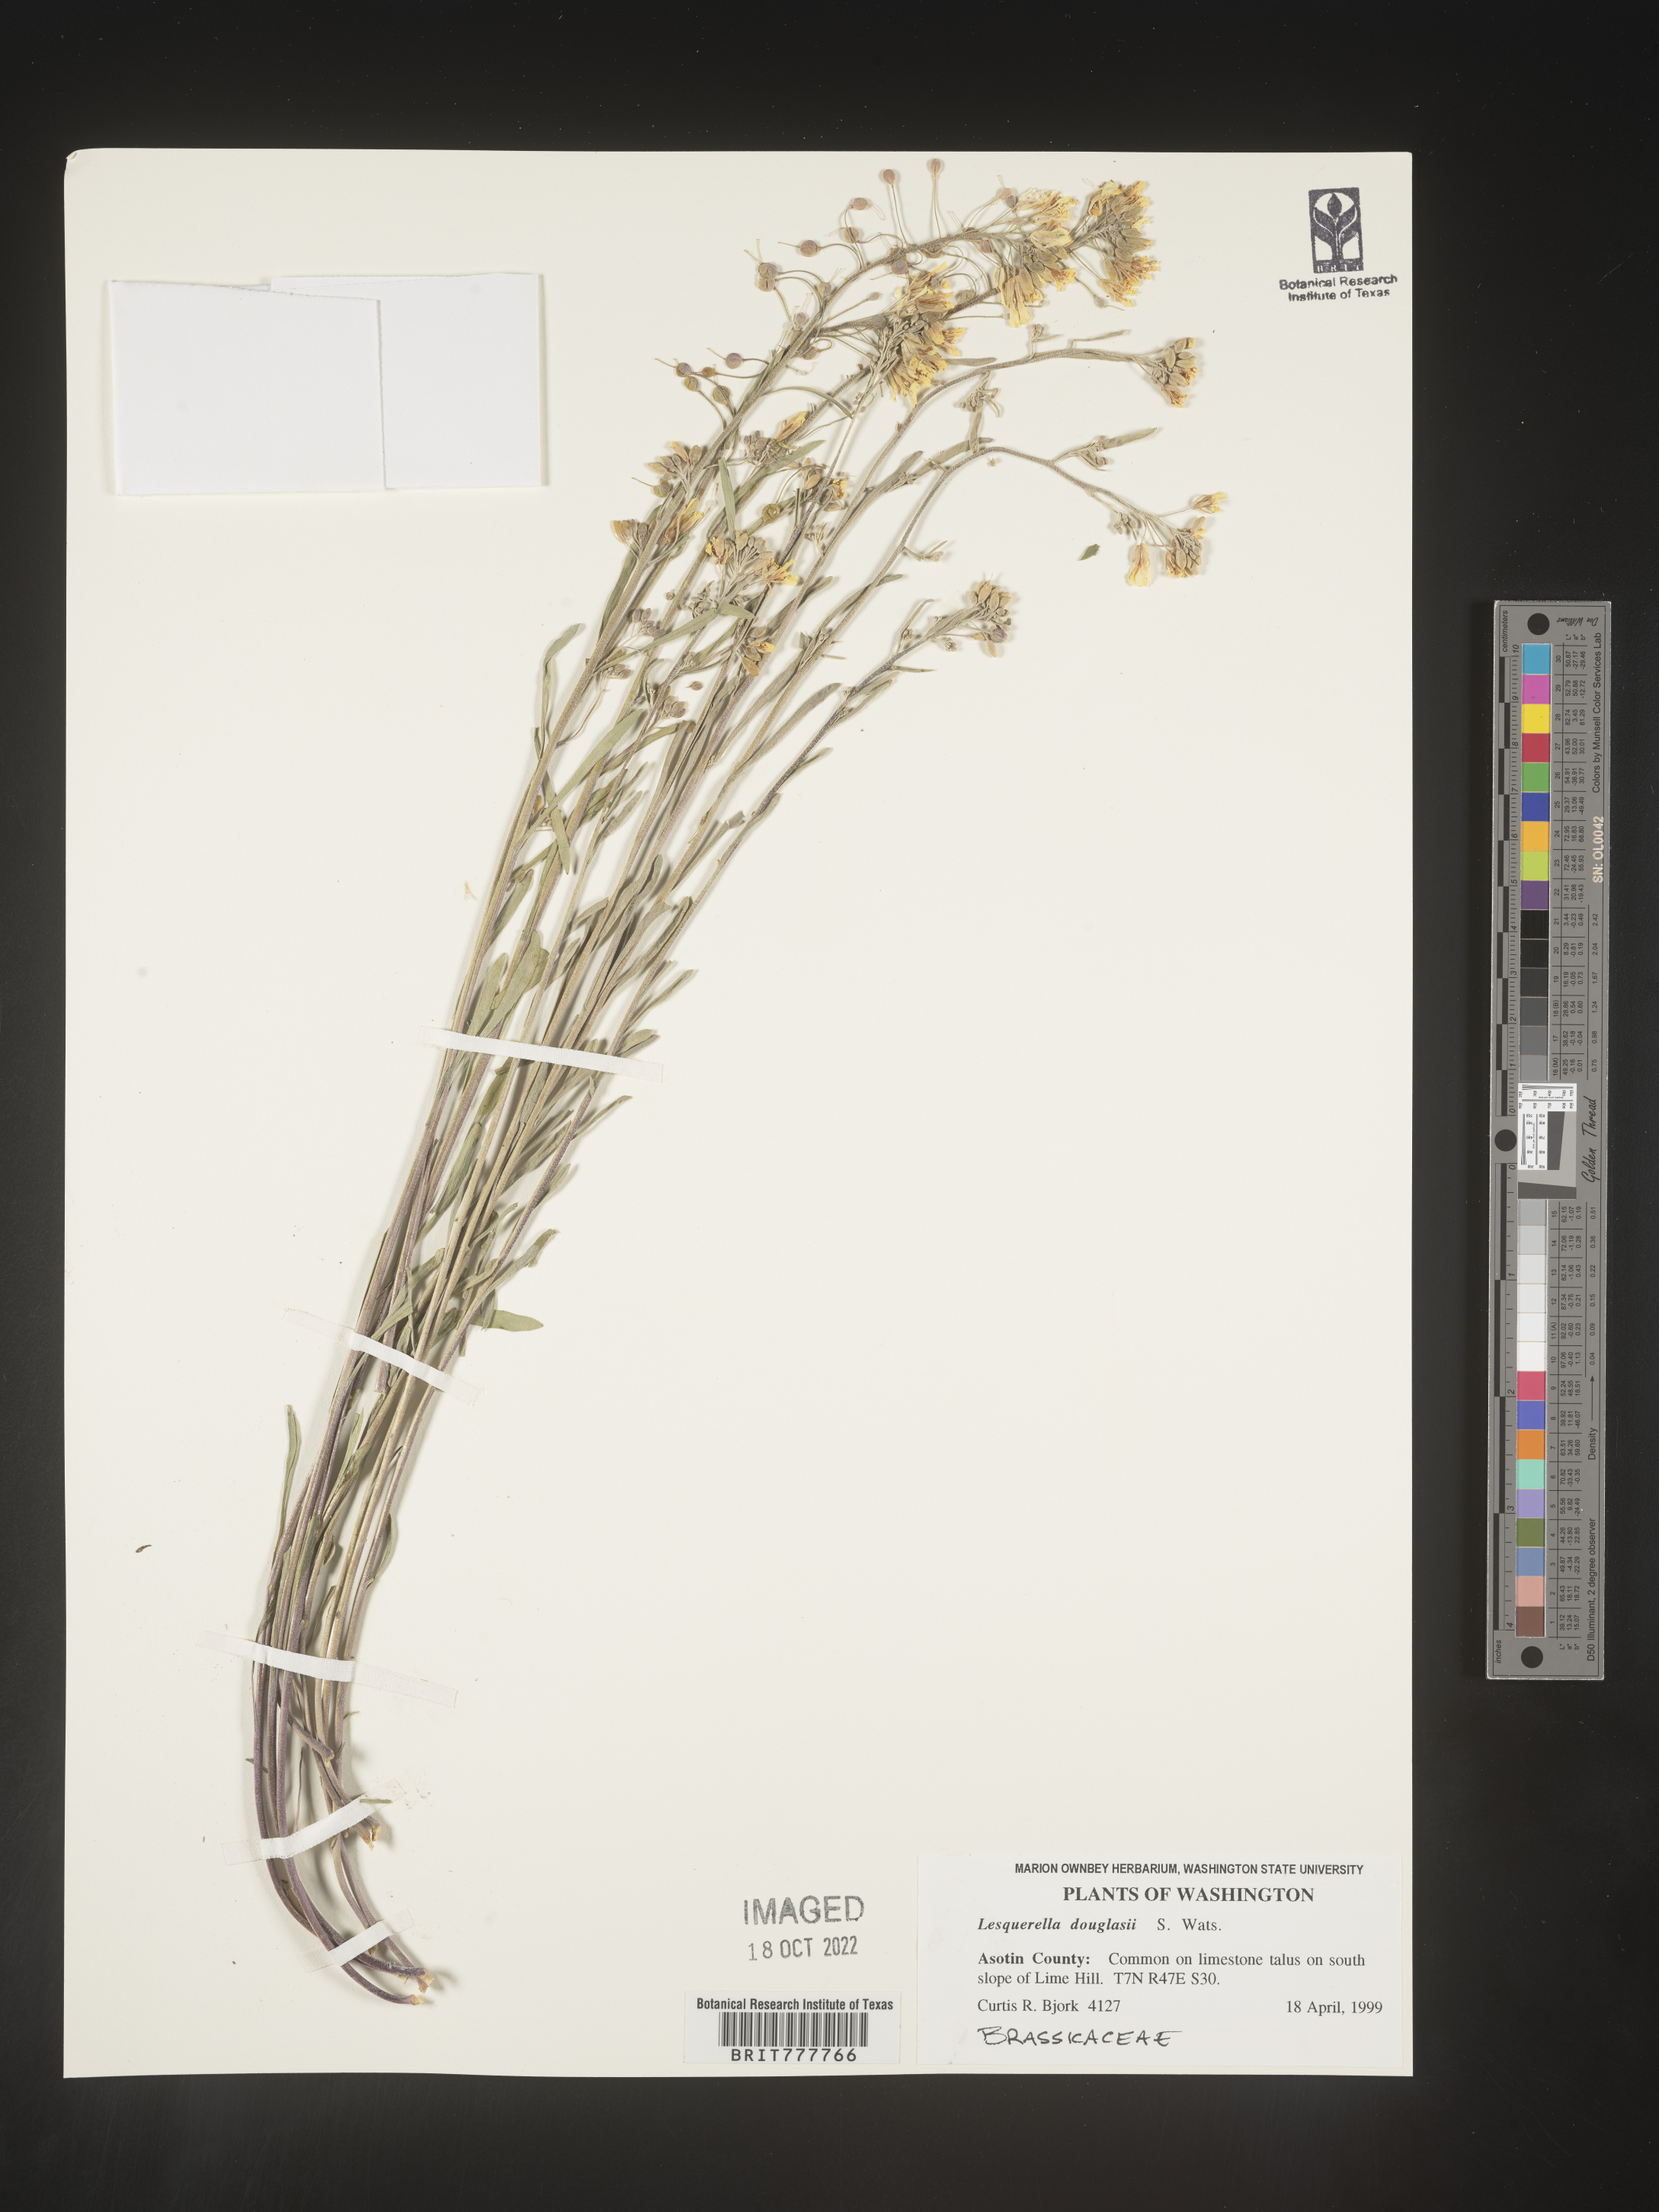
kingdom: Chromista
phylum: Cercozoa
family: Psammonobiotidae
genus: Lesquerella
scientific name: Lesquerella
